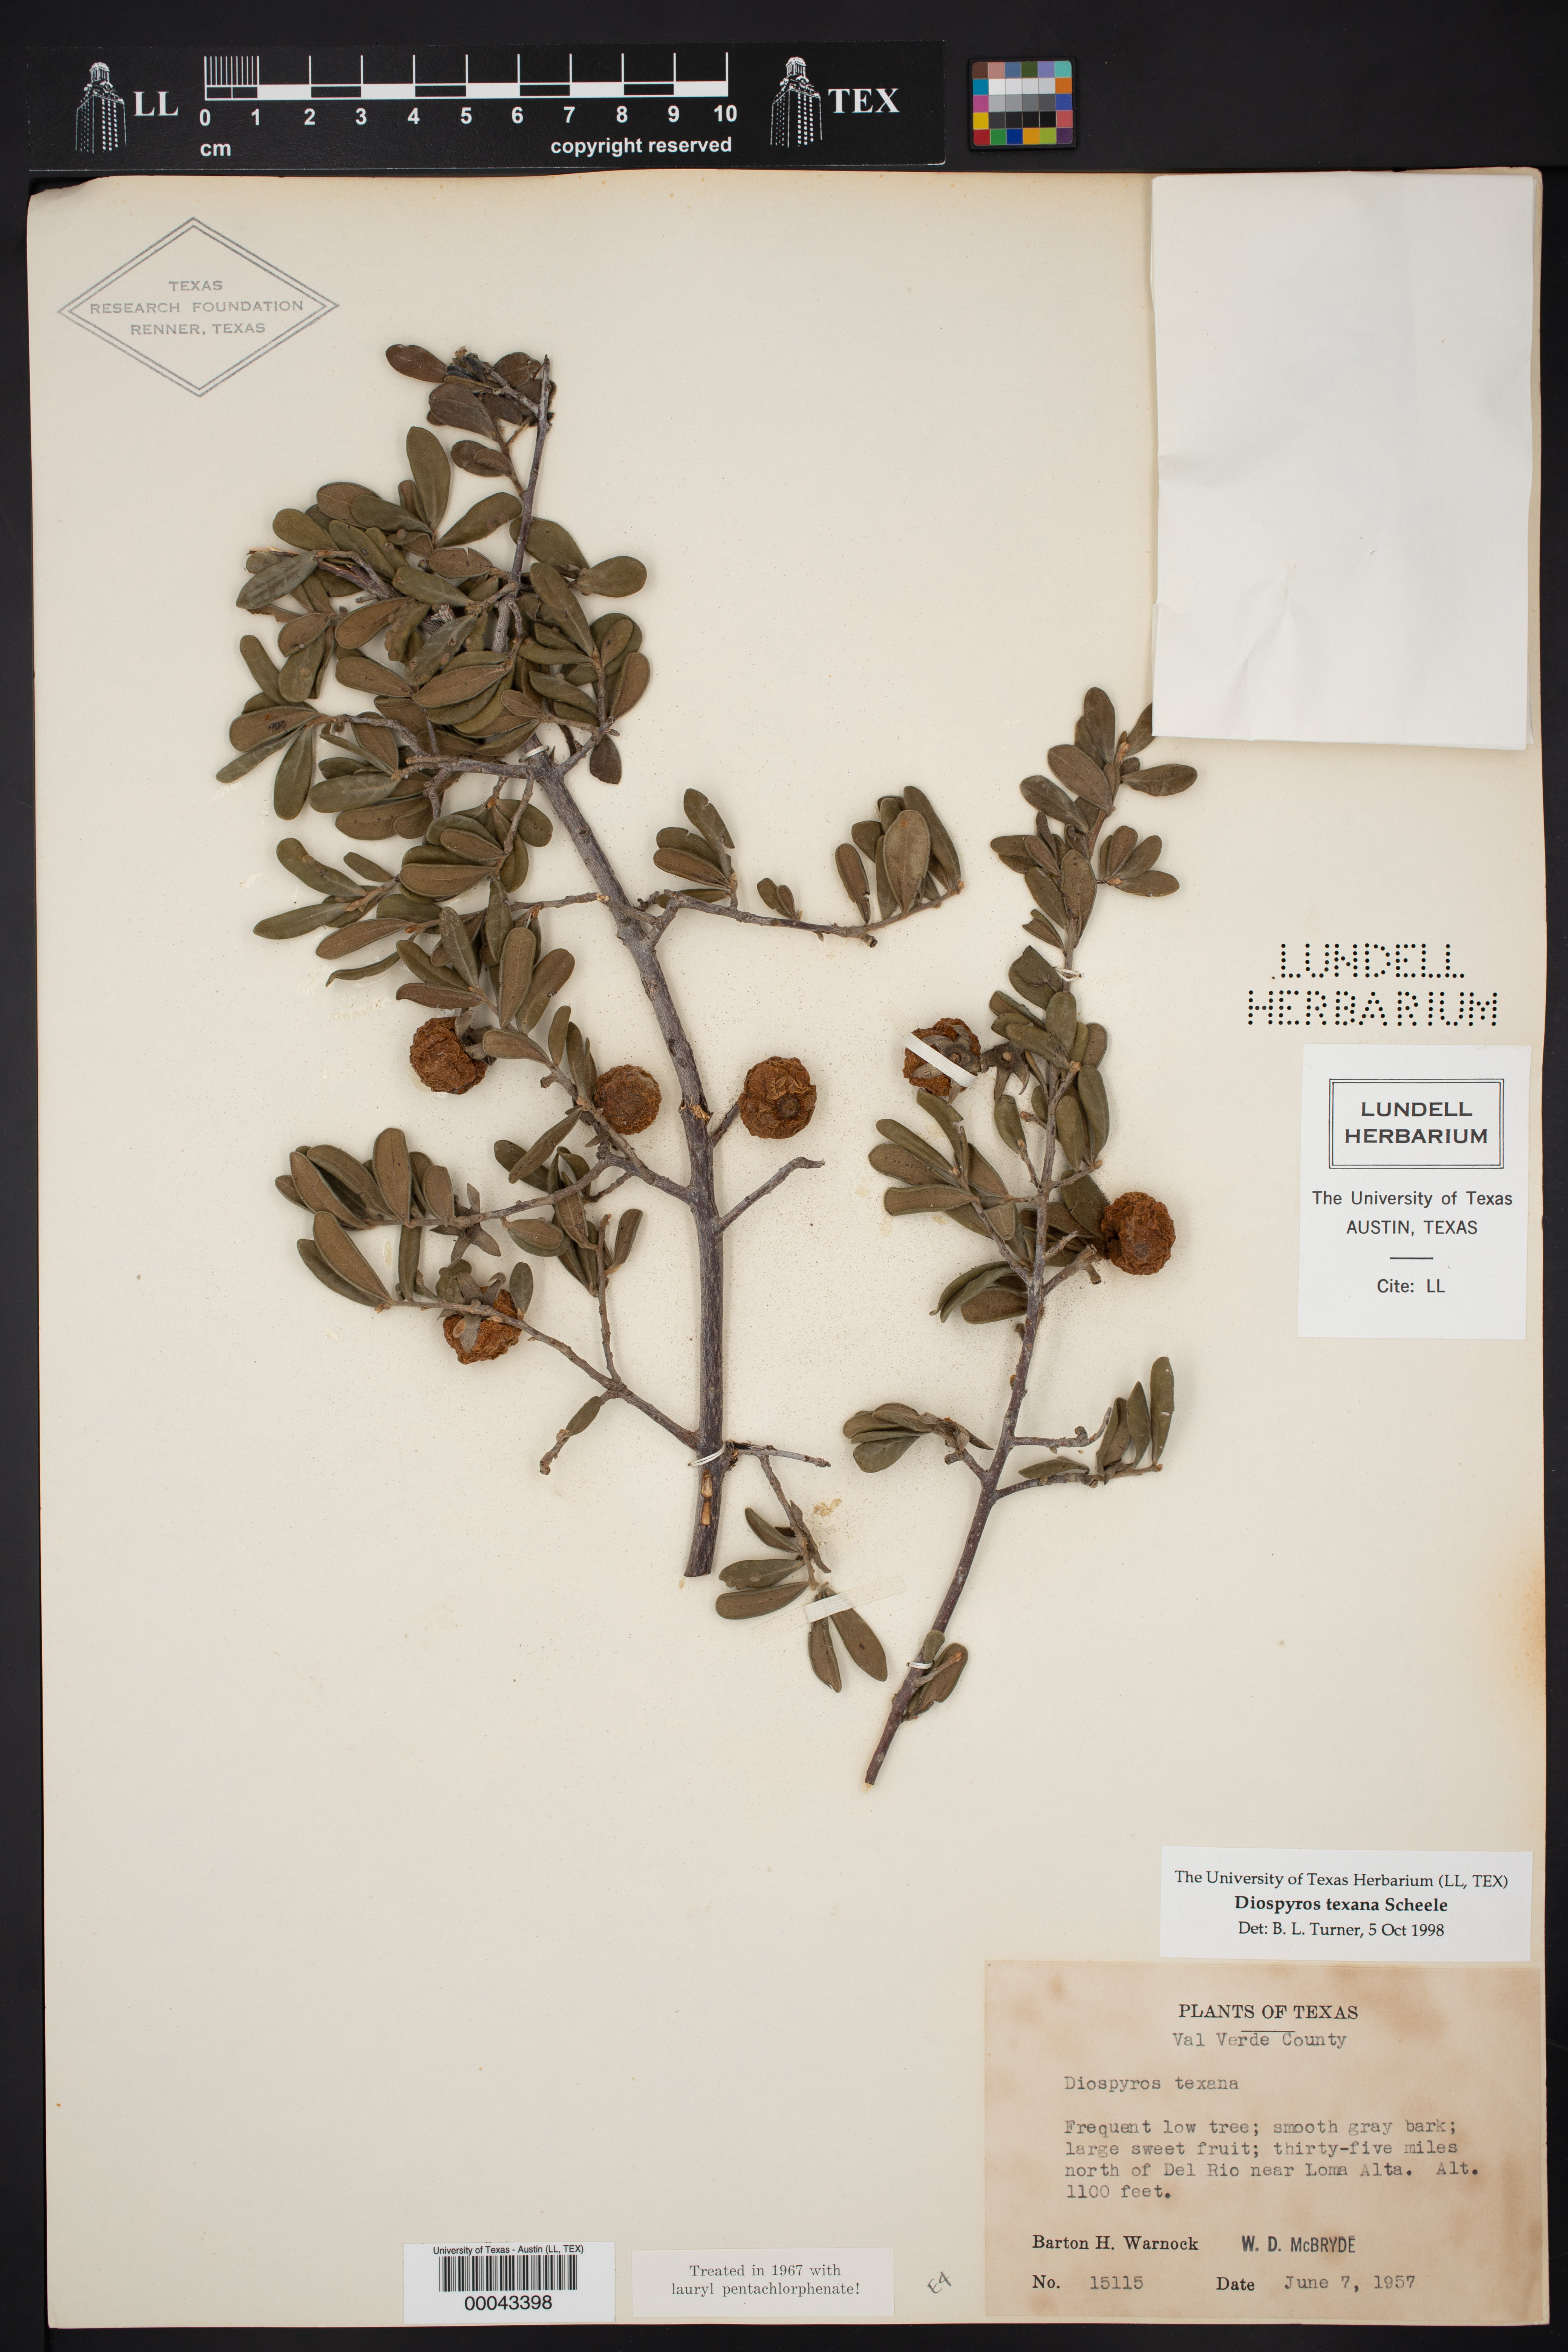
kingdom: Plantae
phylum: Tracheophyta
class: Magnoliopsida
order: Ericales
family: Ebenaceae
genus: Diospyros
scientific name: Diospyros texana
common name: Texas persimmon
